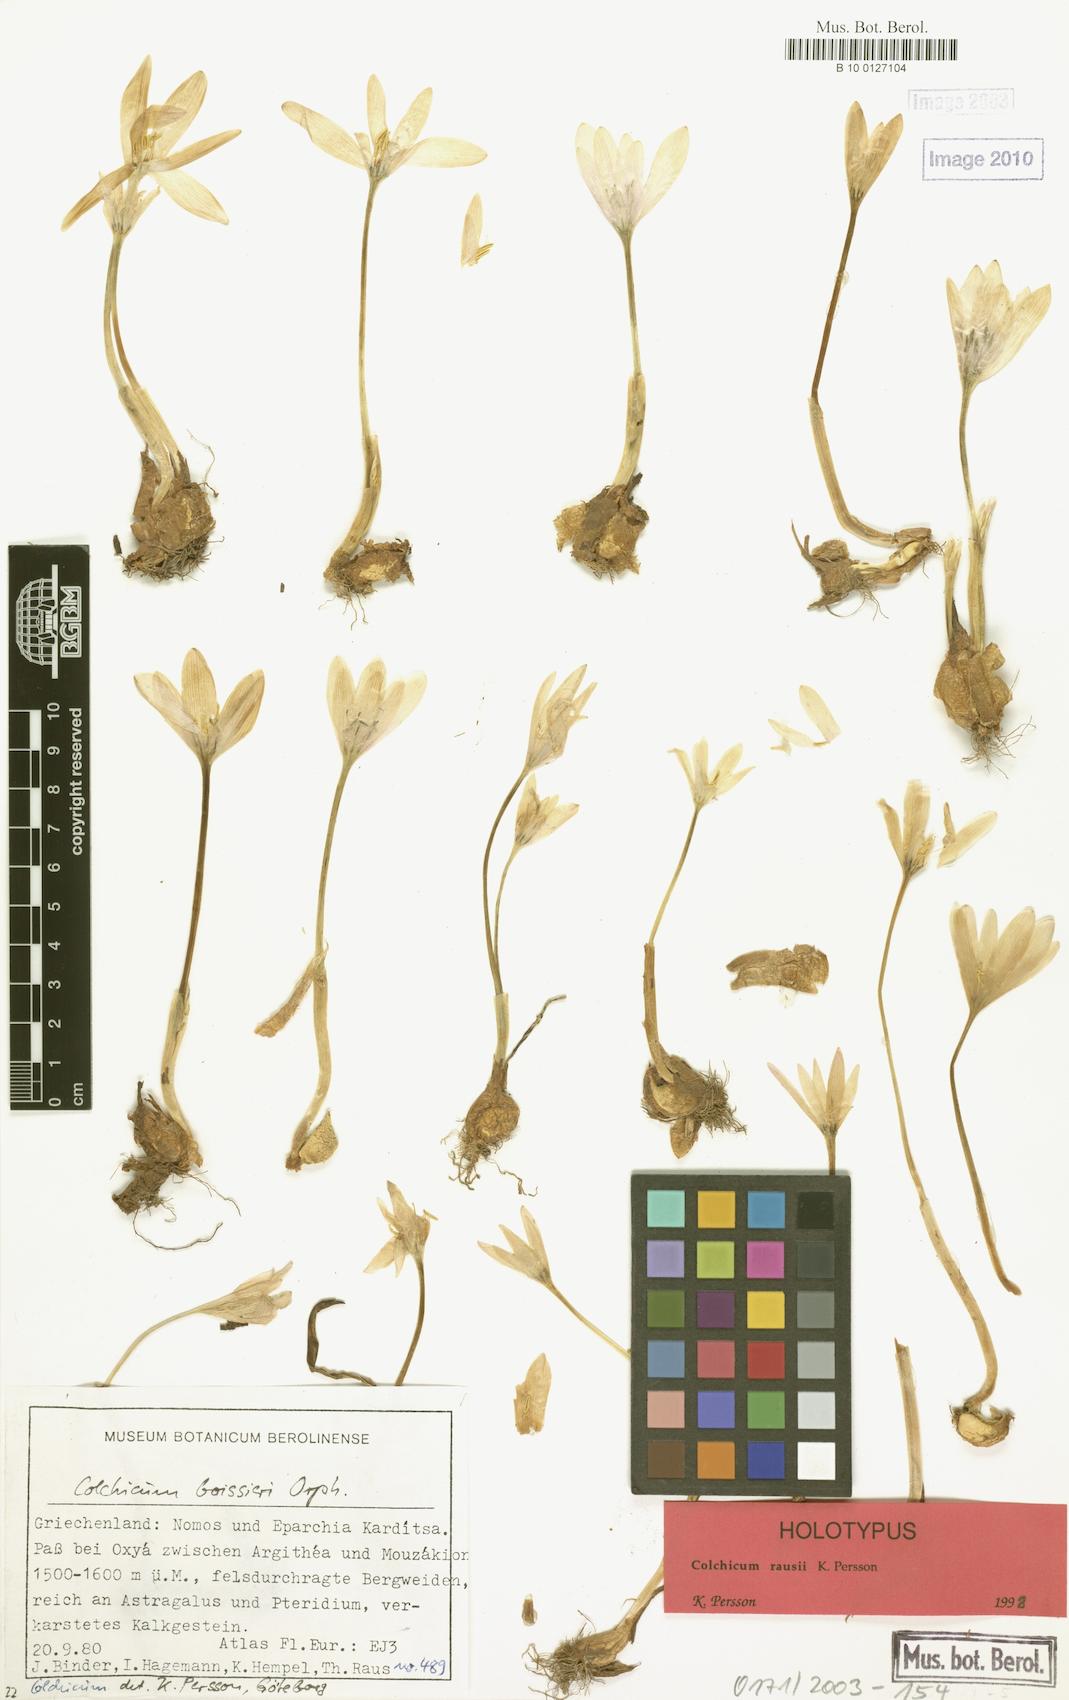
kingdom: Plantae
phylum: Tracheophyta
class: Liliopsida
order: Liliales
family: Colchicaceae
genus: Colchicum
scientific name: Colchicum rausii
